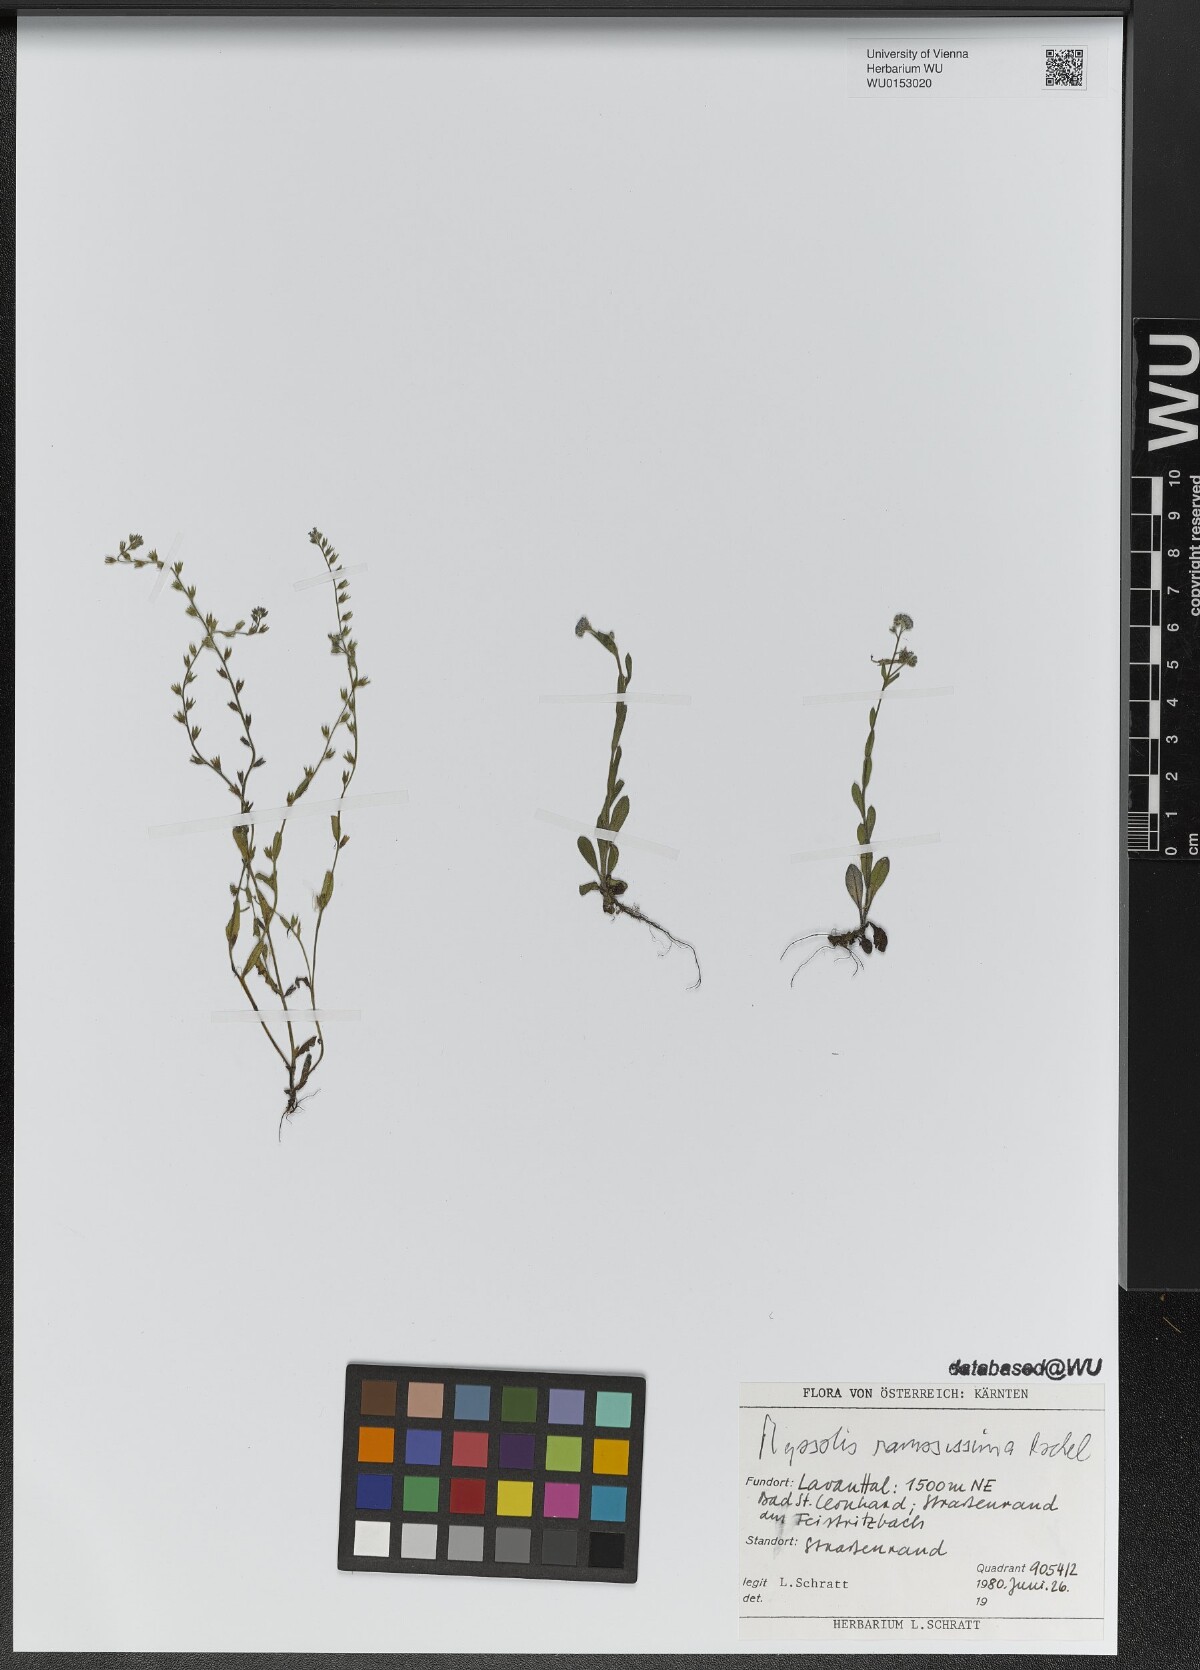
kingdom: Plantae
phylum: Tracheophyta
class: Magnoliopsida
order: Boraginales
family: Boraginaceae
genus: Myosotis
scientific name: Myosotis ramosissima
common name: Early forget-me-not
